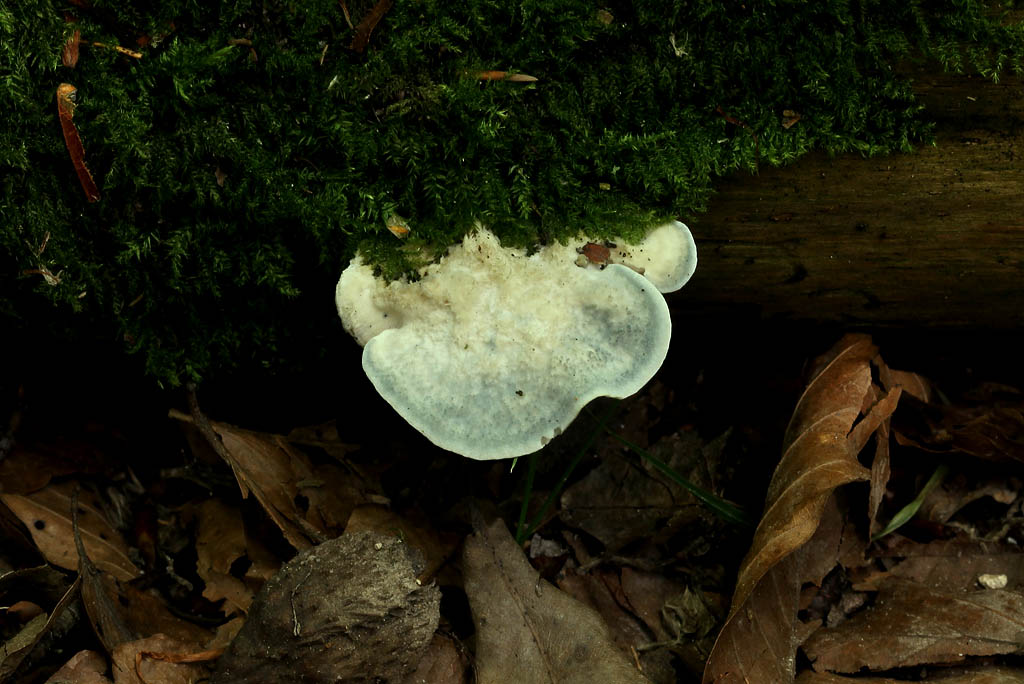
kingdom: Fungi
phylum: Basidiomycota
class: Agaricomycetes
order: Polyporales
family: Polyporaceae
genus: Cyanosporus
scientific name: Cyanosporus caesius
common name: blålig kødporesvamp
